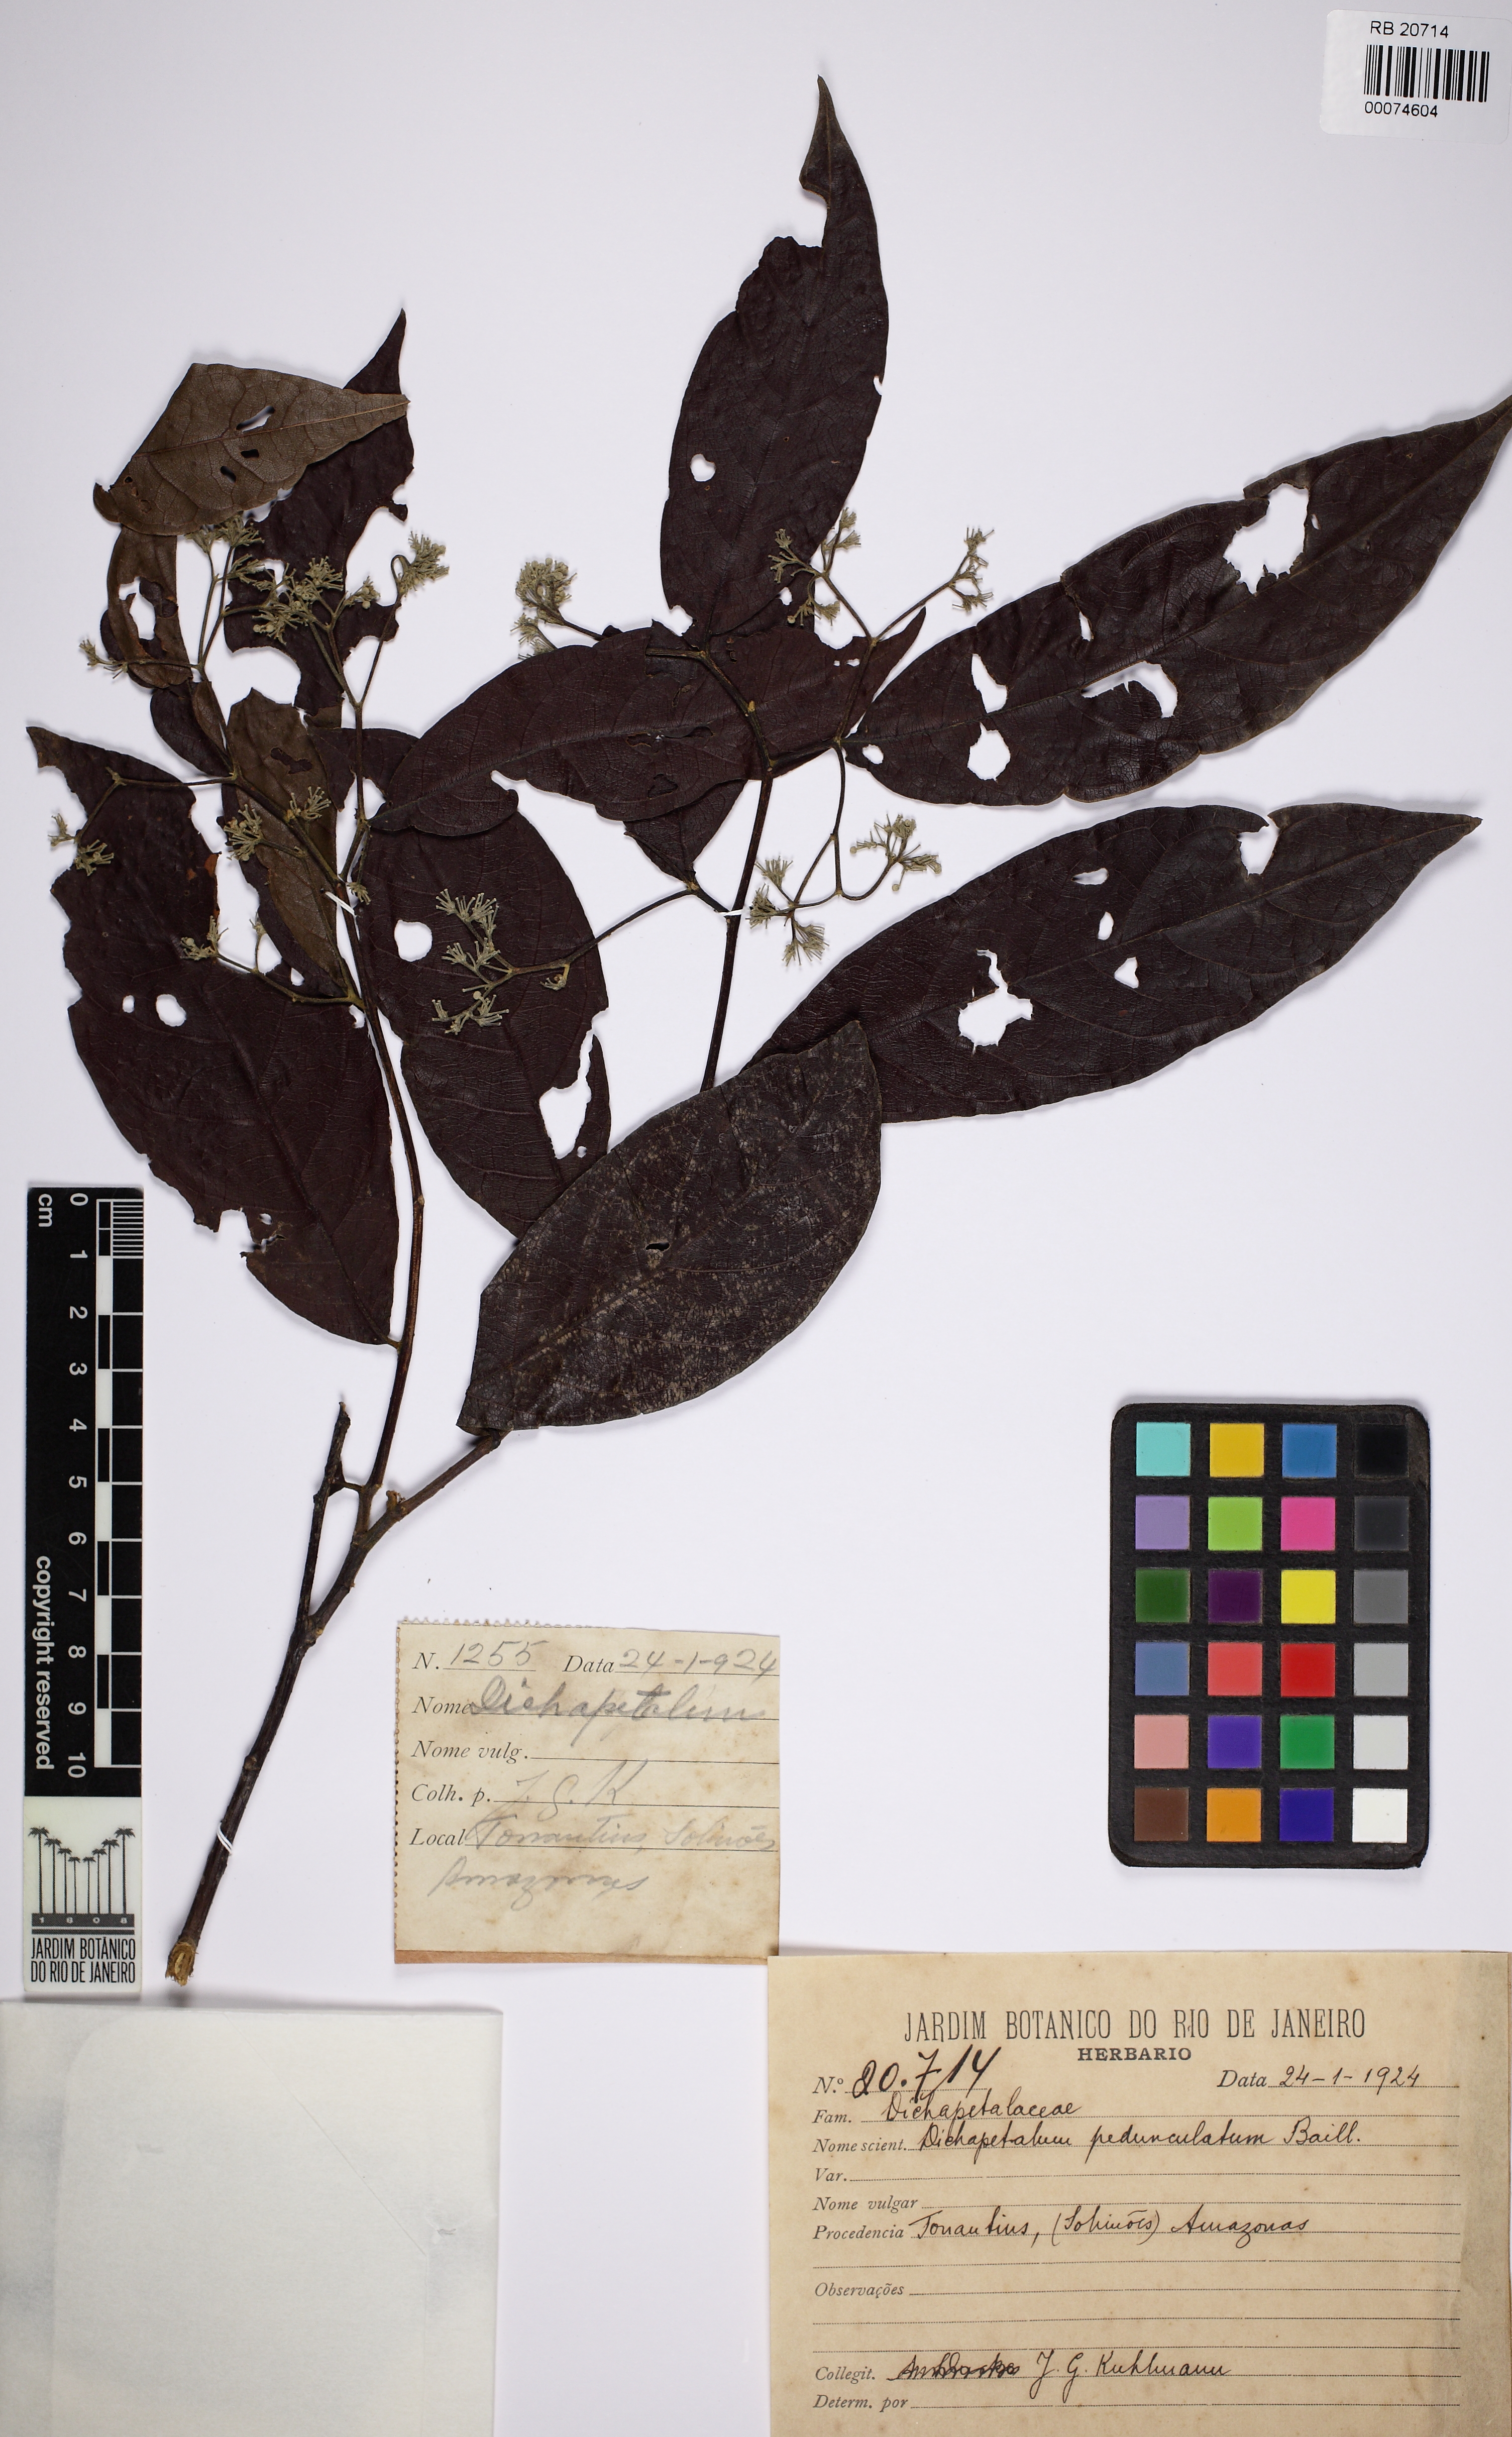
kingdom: Plantae
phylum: Tracheophyta
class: Magnoliopsida
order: Malpighiales
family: Dichapetalaceae
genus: Dichapetalum
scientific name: Dichapetalum pedunculatum
